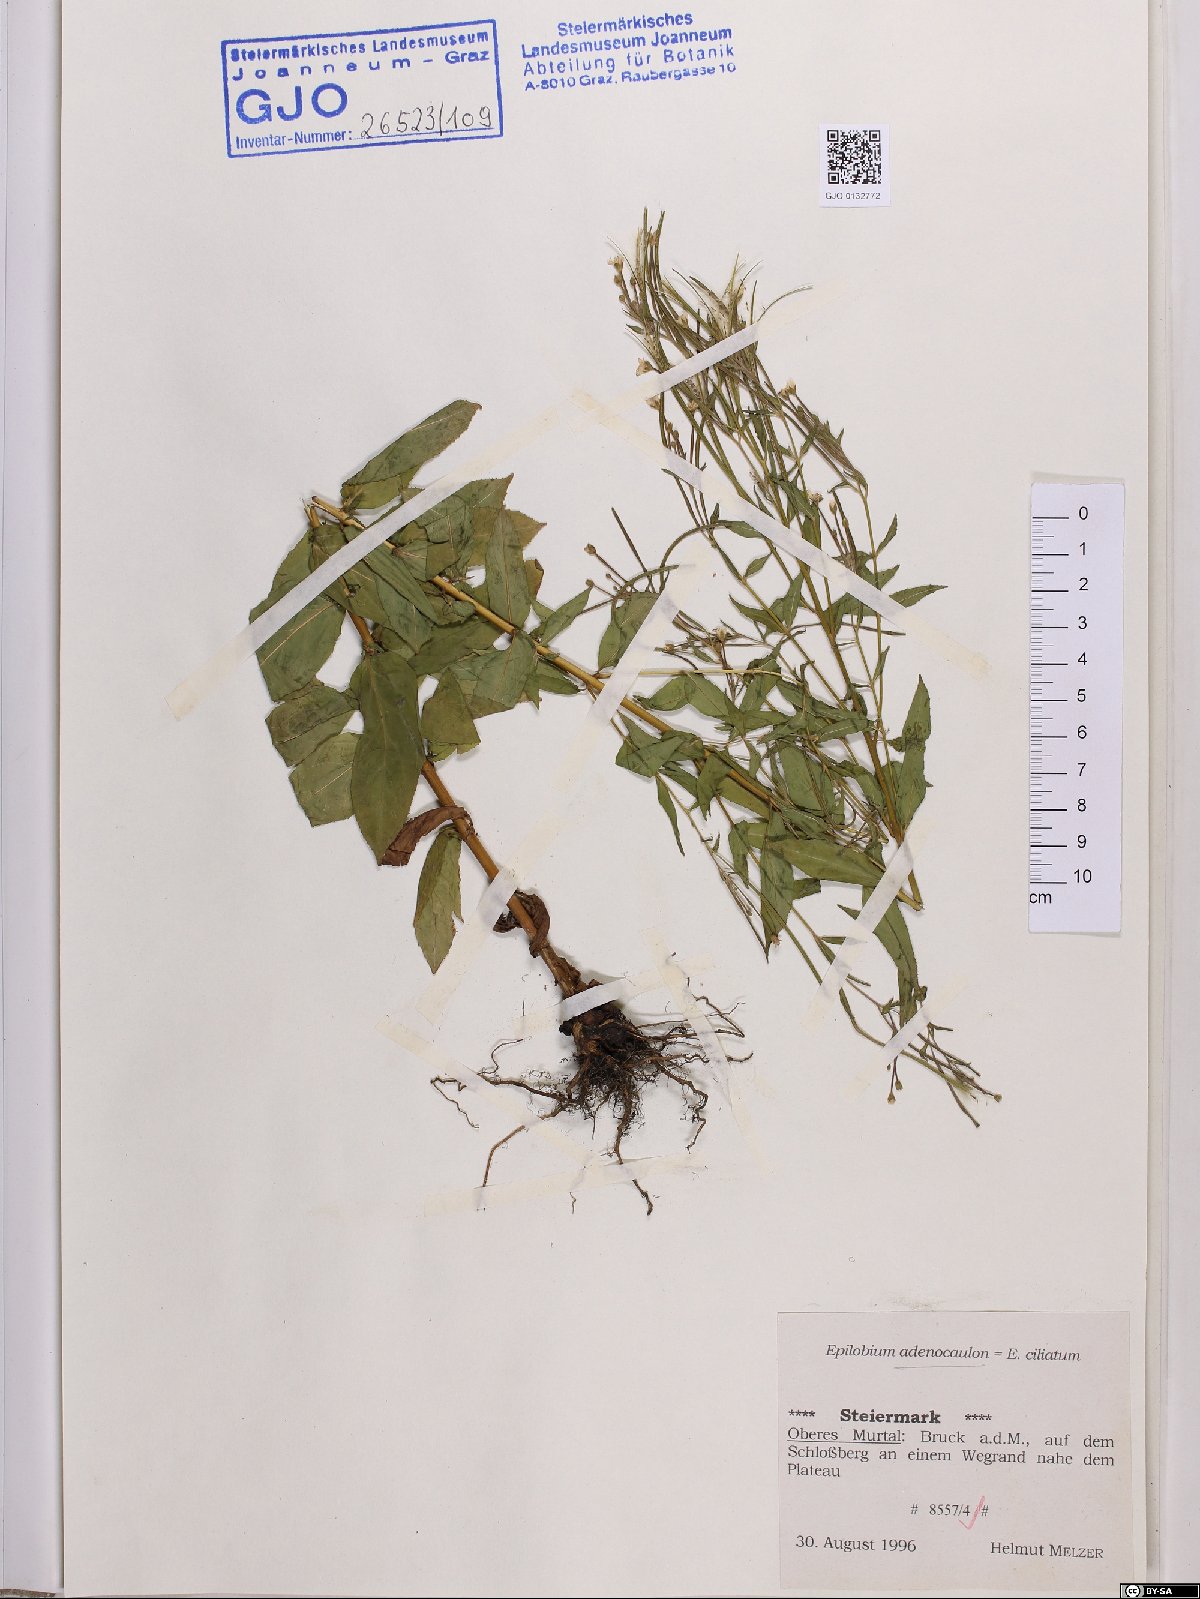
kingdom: Plantae
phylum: Tracheophyta
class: Magnoliopsida
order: Myrtales
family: Onagraceae
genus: Epilobium
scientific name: Epilobium ciliatum
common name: American willowherb
